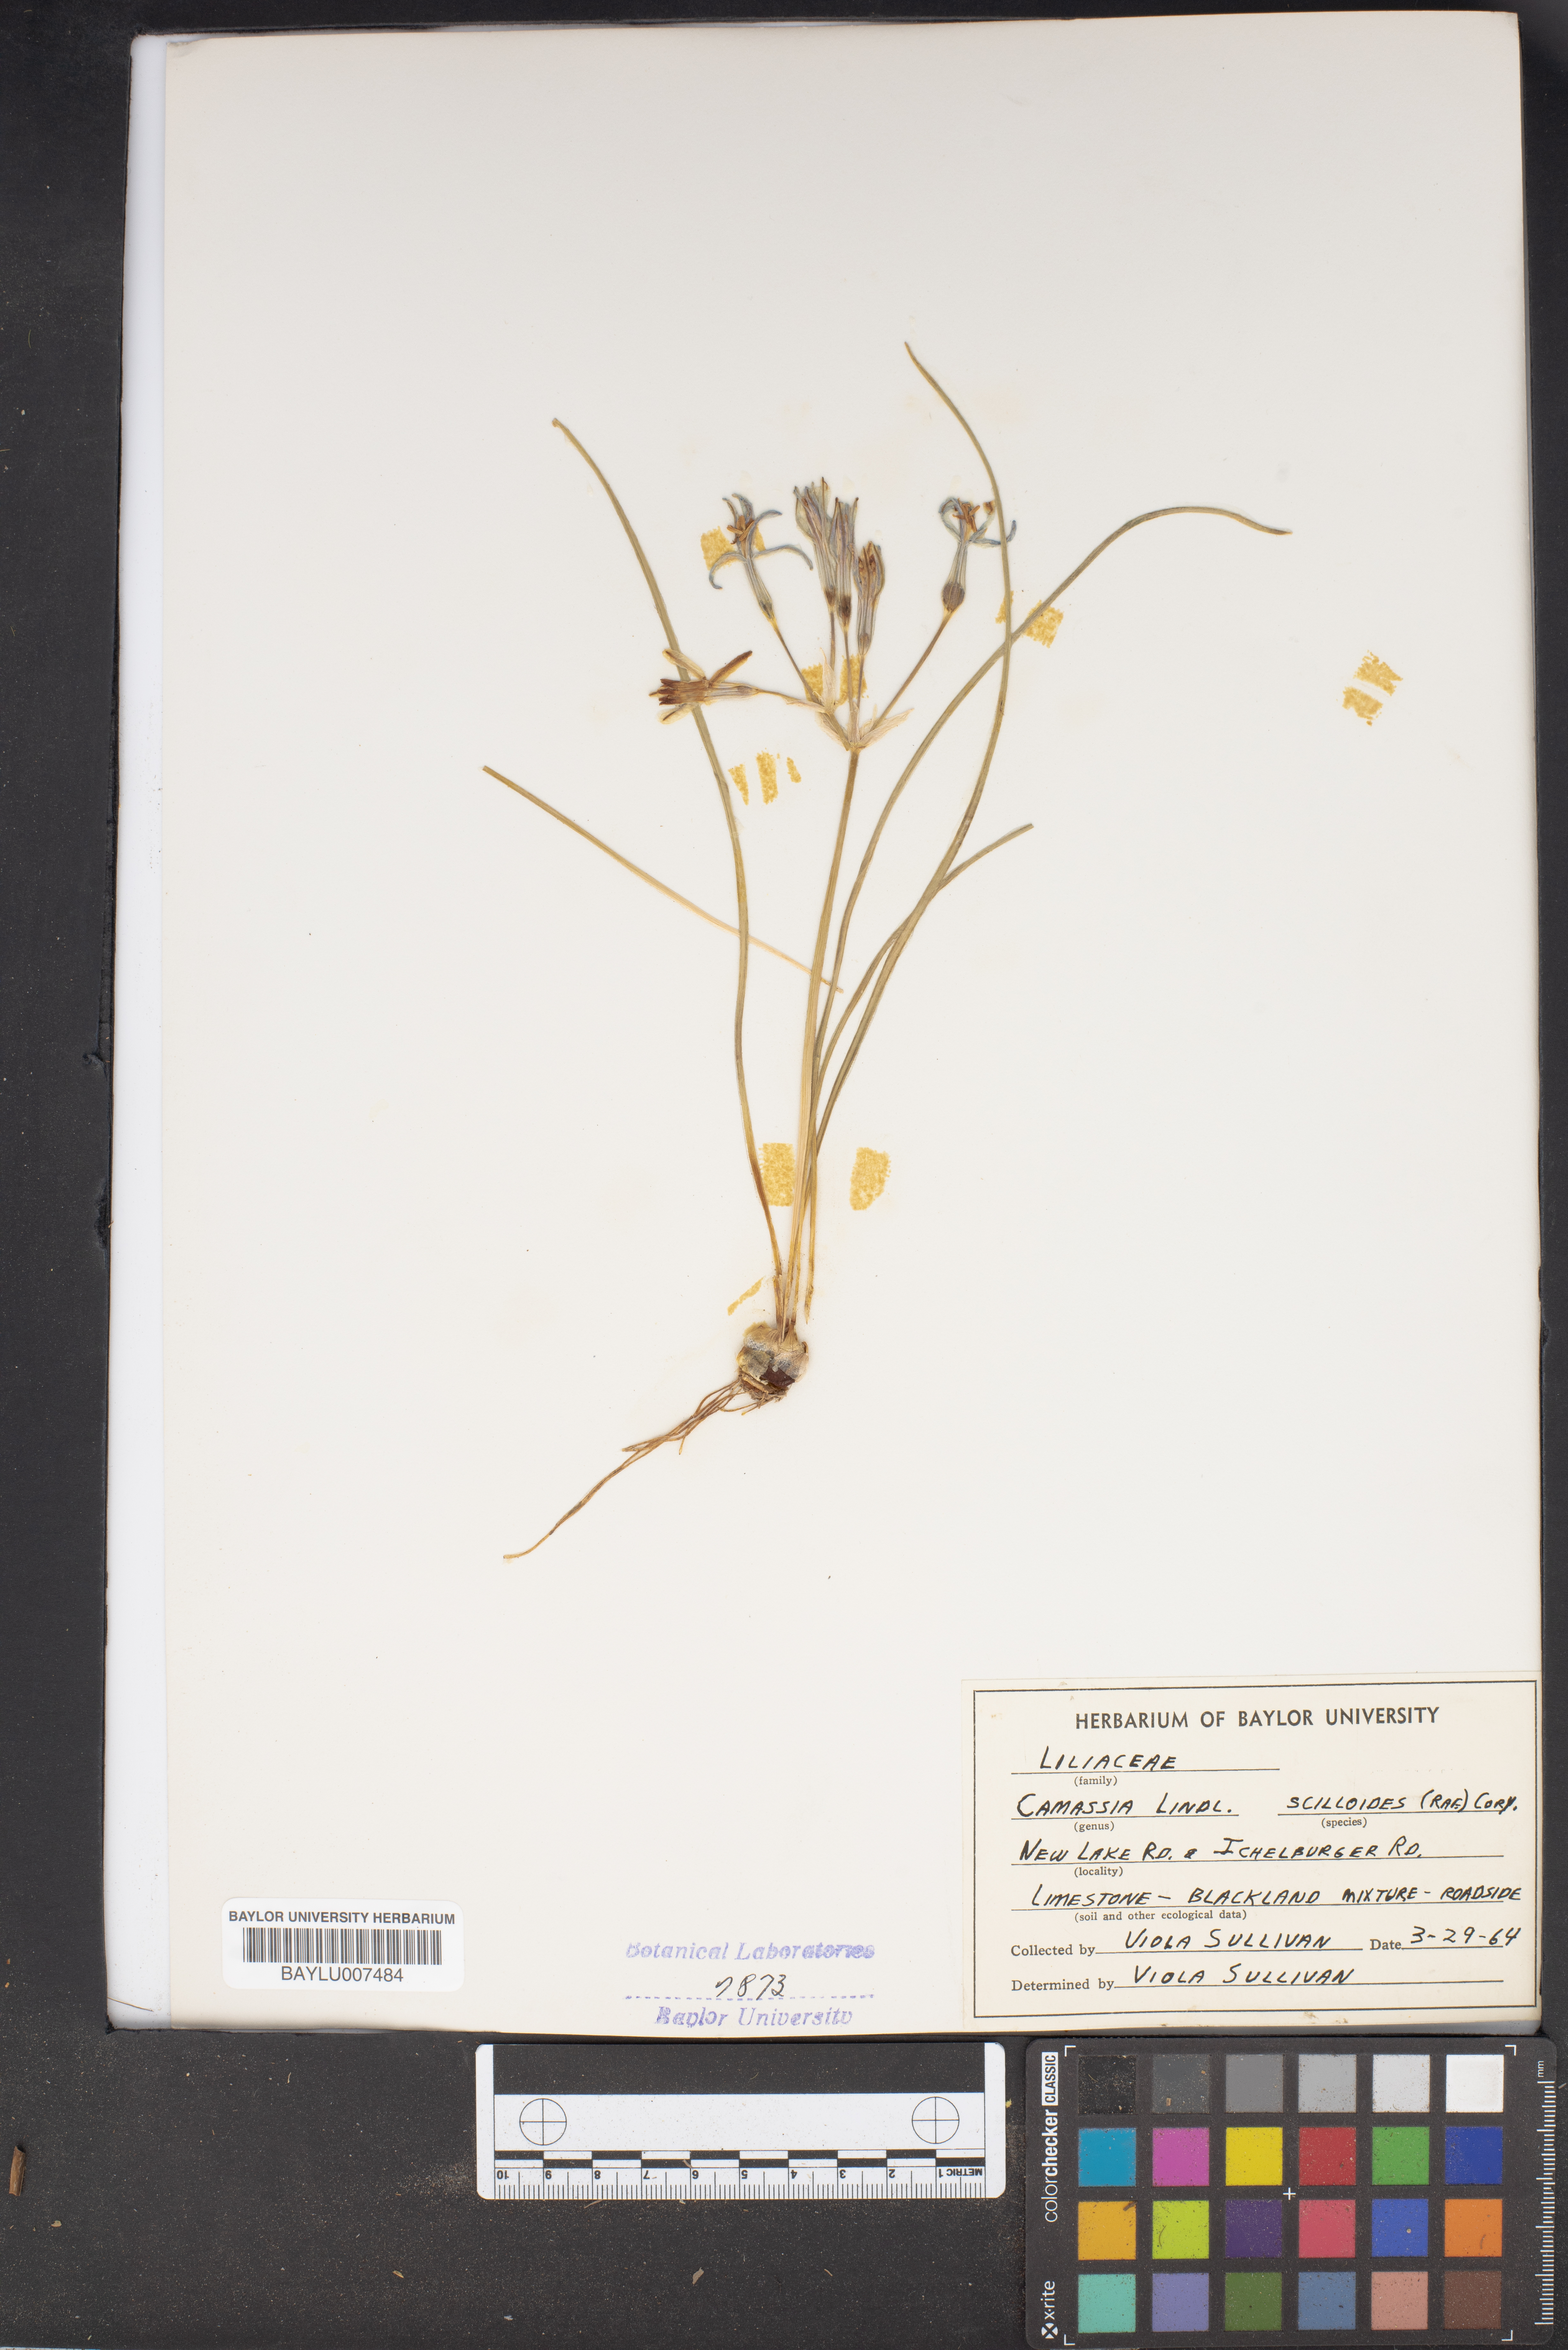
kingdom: Plantae
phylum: Tracheophyta
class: Liliopsida
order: Asparagales
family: Asparagaceae
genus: Camassia
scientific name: Camassia scilloides
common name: Wild hyacinth
